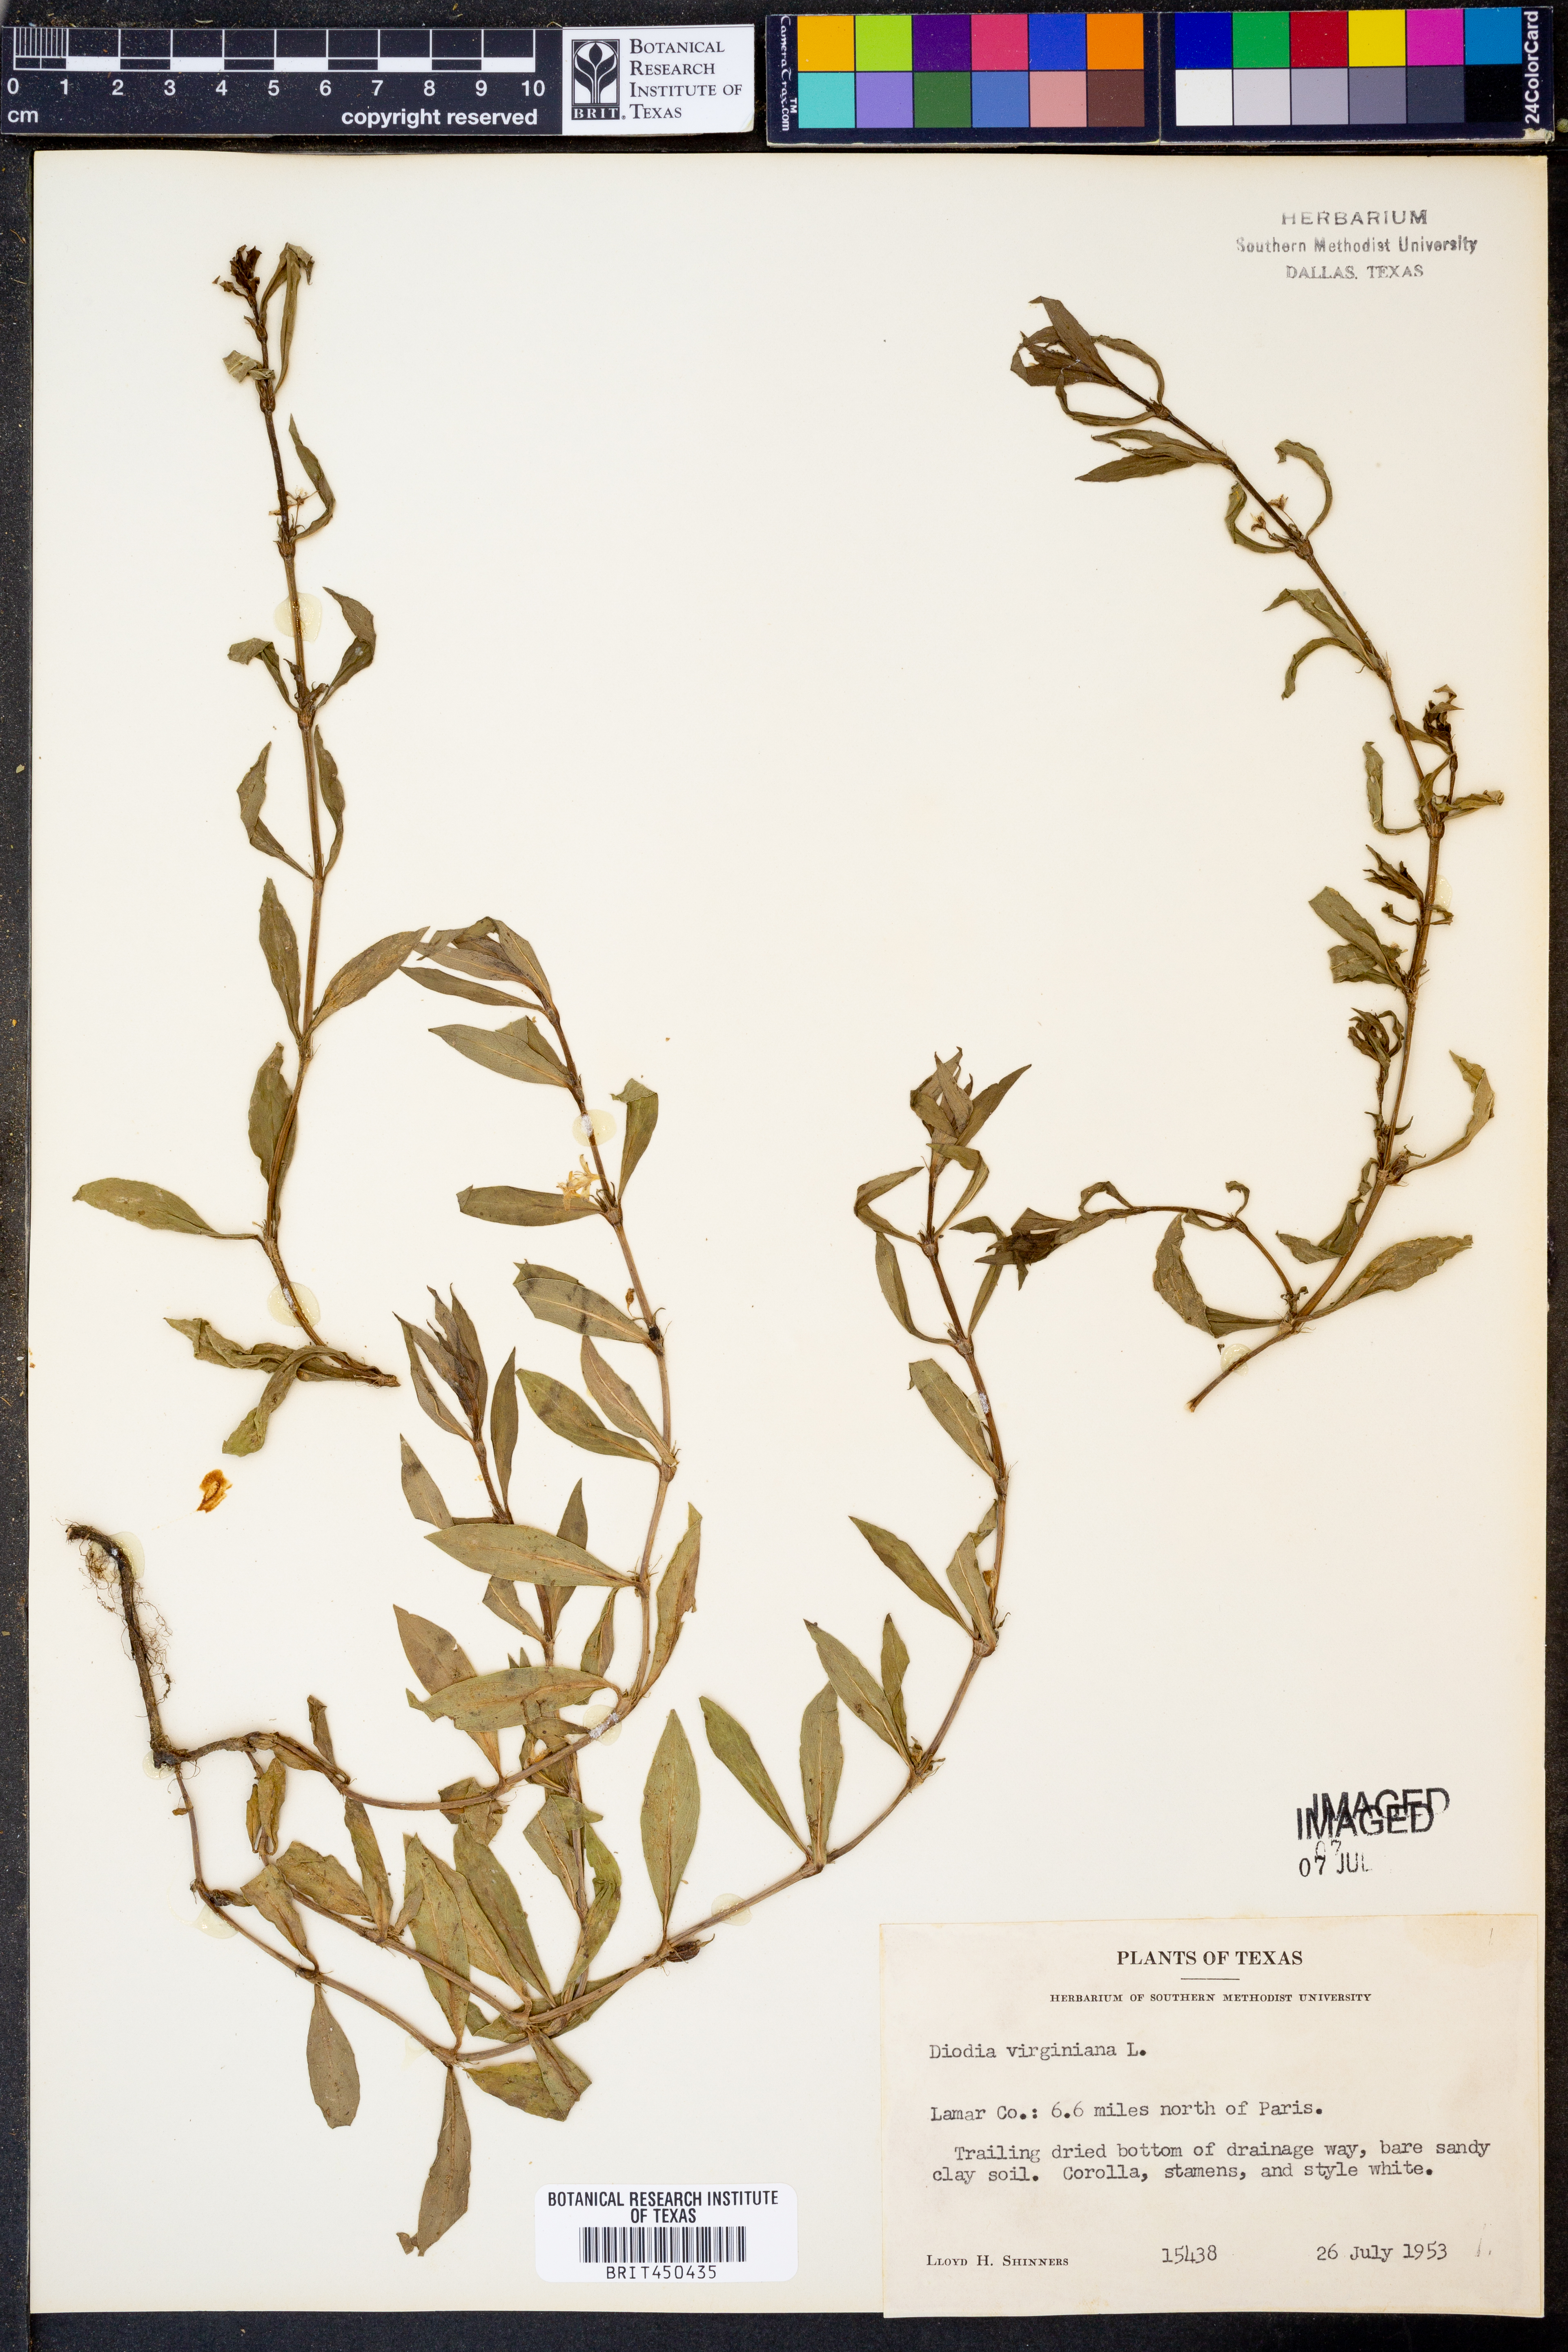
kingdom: Plantae
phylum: Tracheophyta
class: Magnoliopsida
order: Gentianales
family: Rubiaceae
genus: Diodia
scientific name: Diodia virginiana
